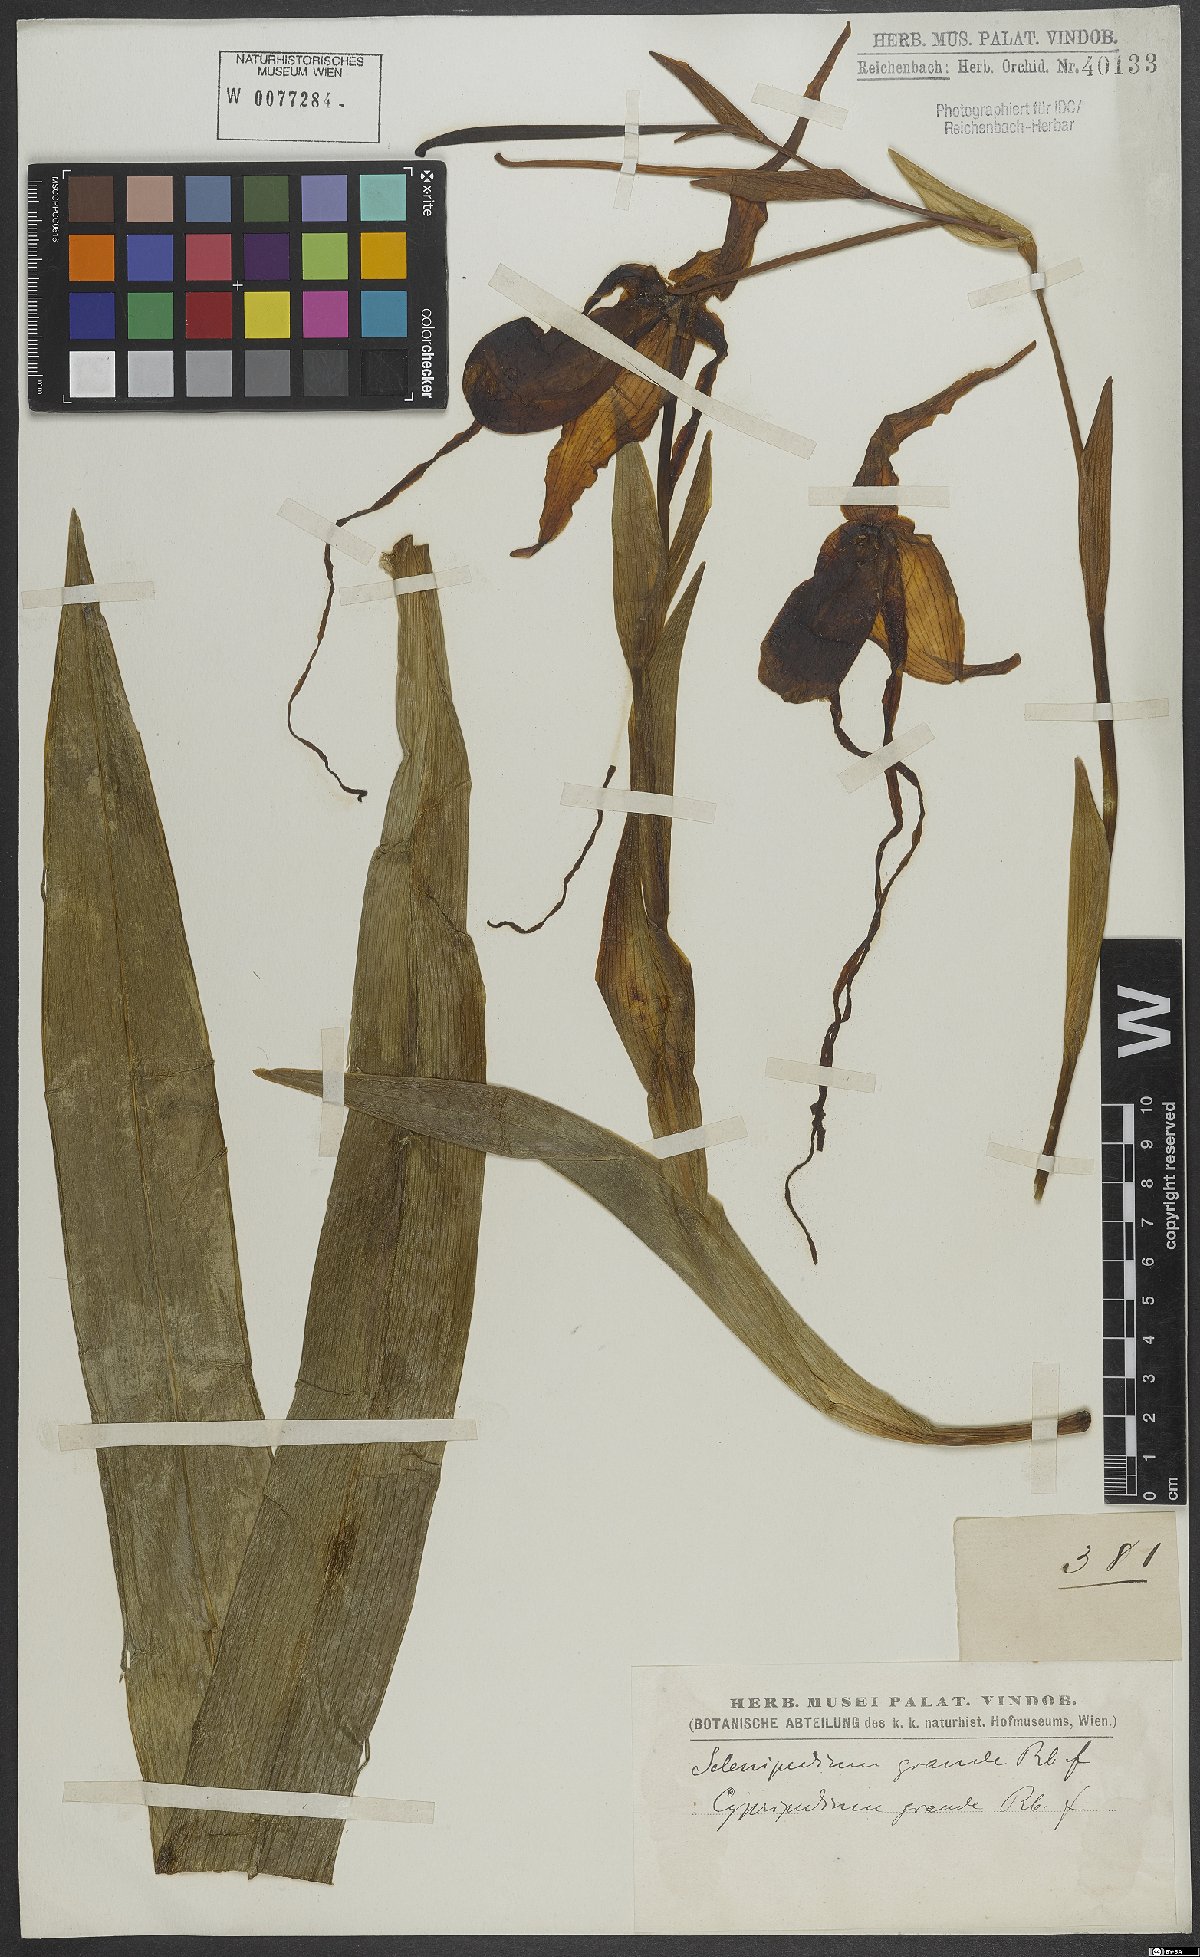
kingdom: Plantae
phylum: Tracheophyta
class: Liliopsida
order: Asparagales
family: Orchidaceae
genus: Phragmipedium
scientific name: Phragmipedium grande
